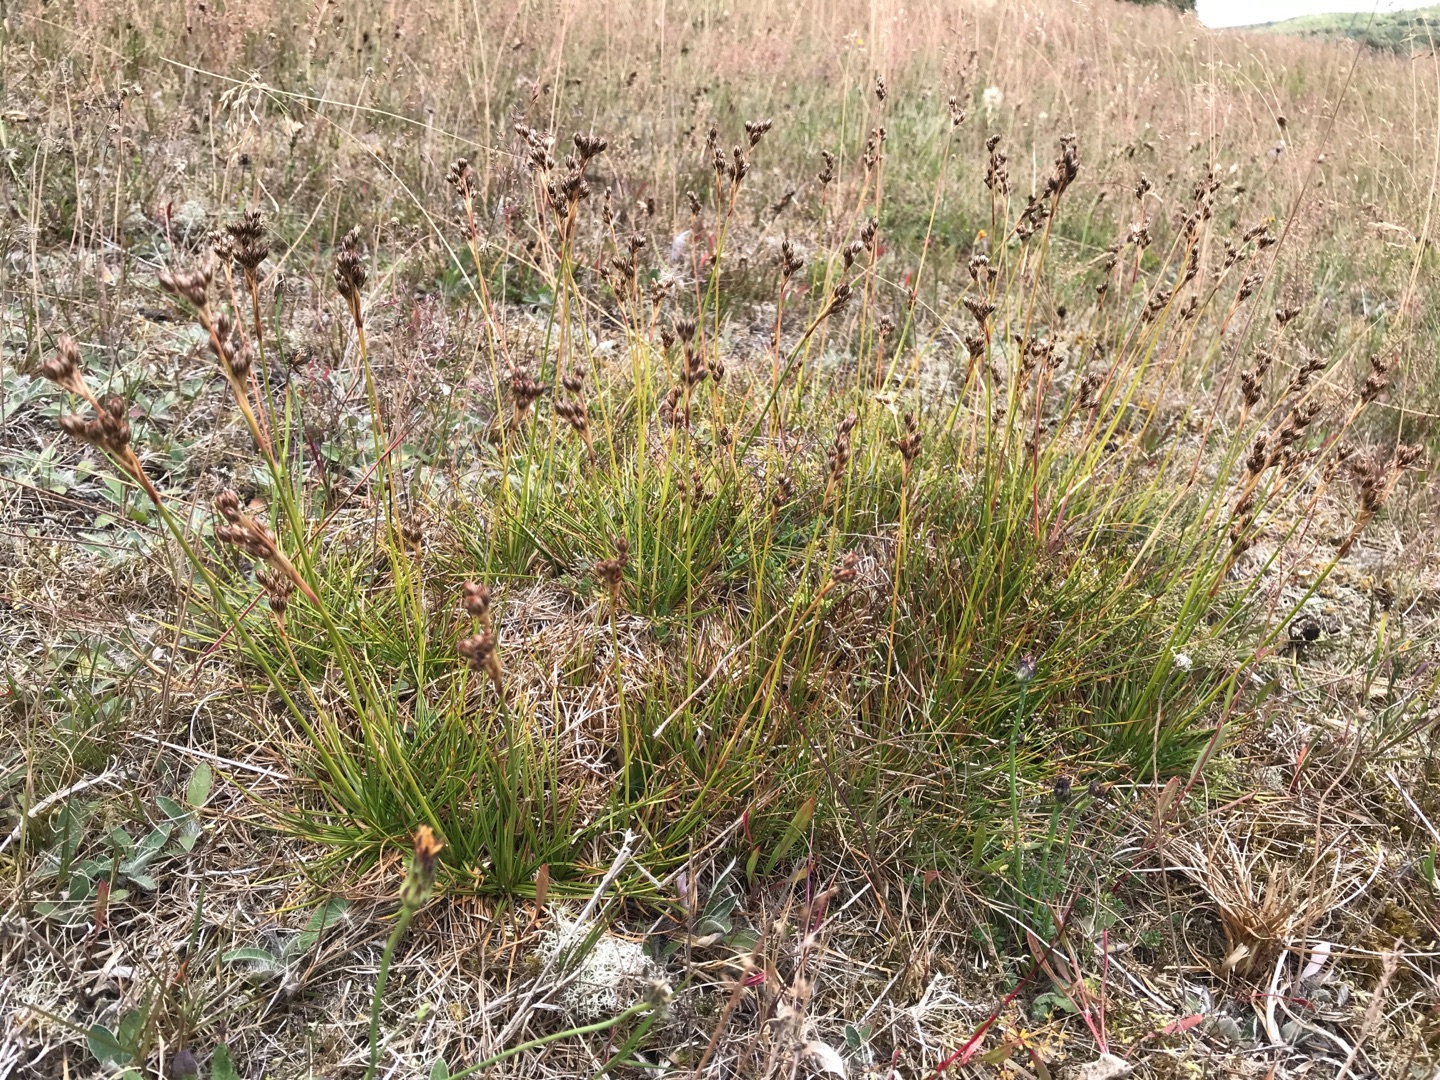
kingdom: Plantae
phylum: Tracheophyta
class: Liliopsida
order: Poales
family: Juncaceae
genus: Juncus
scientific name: Juncus squarrosus
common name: Børste-siv
